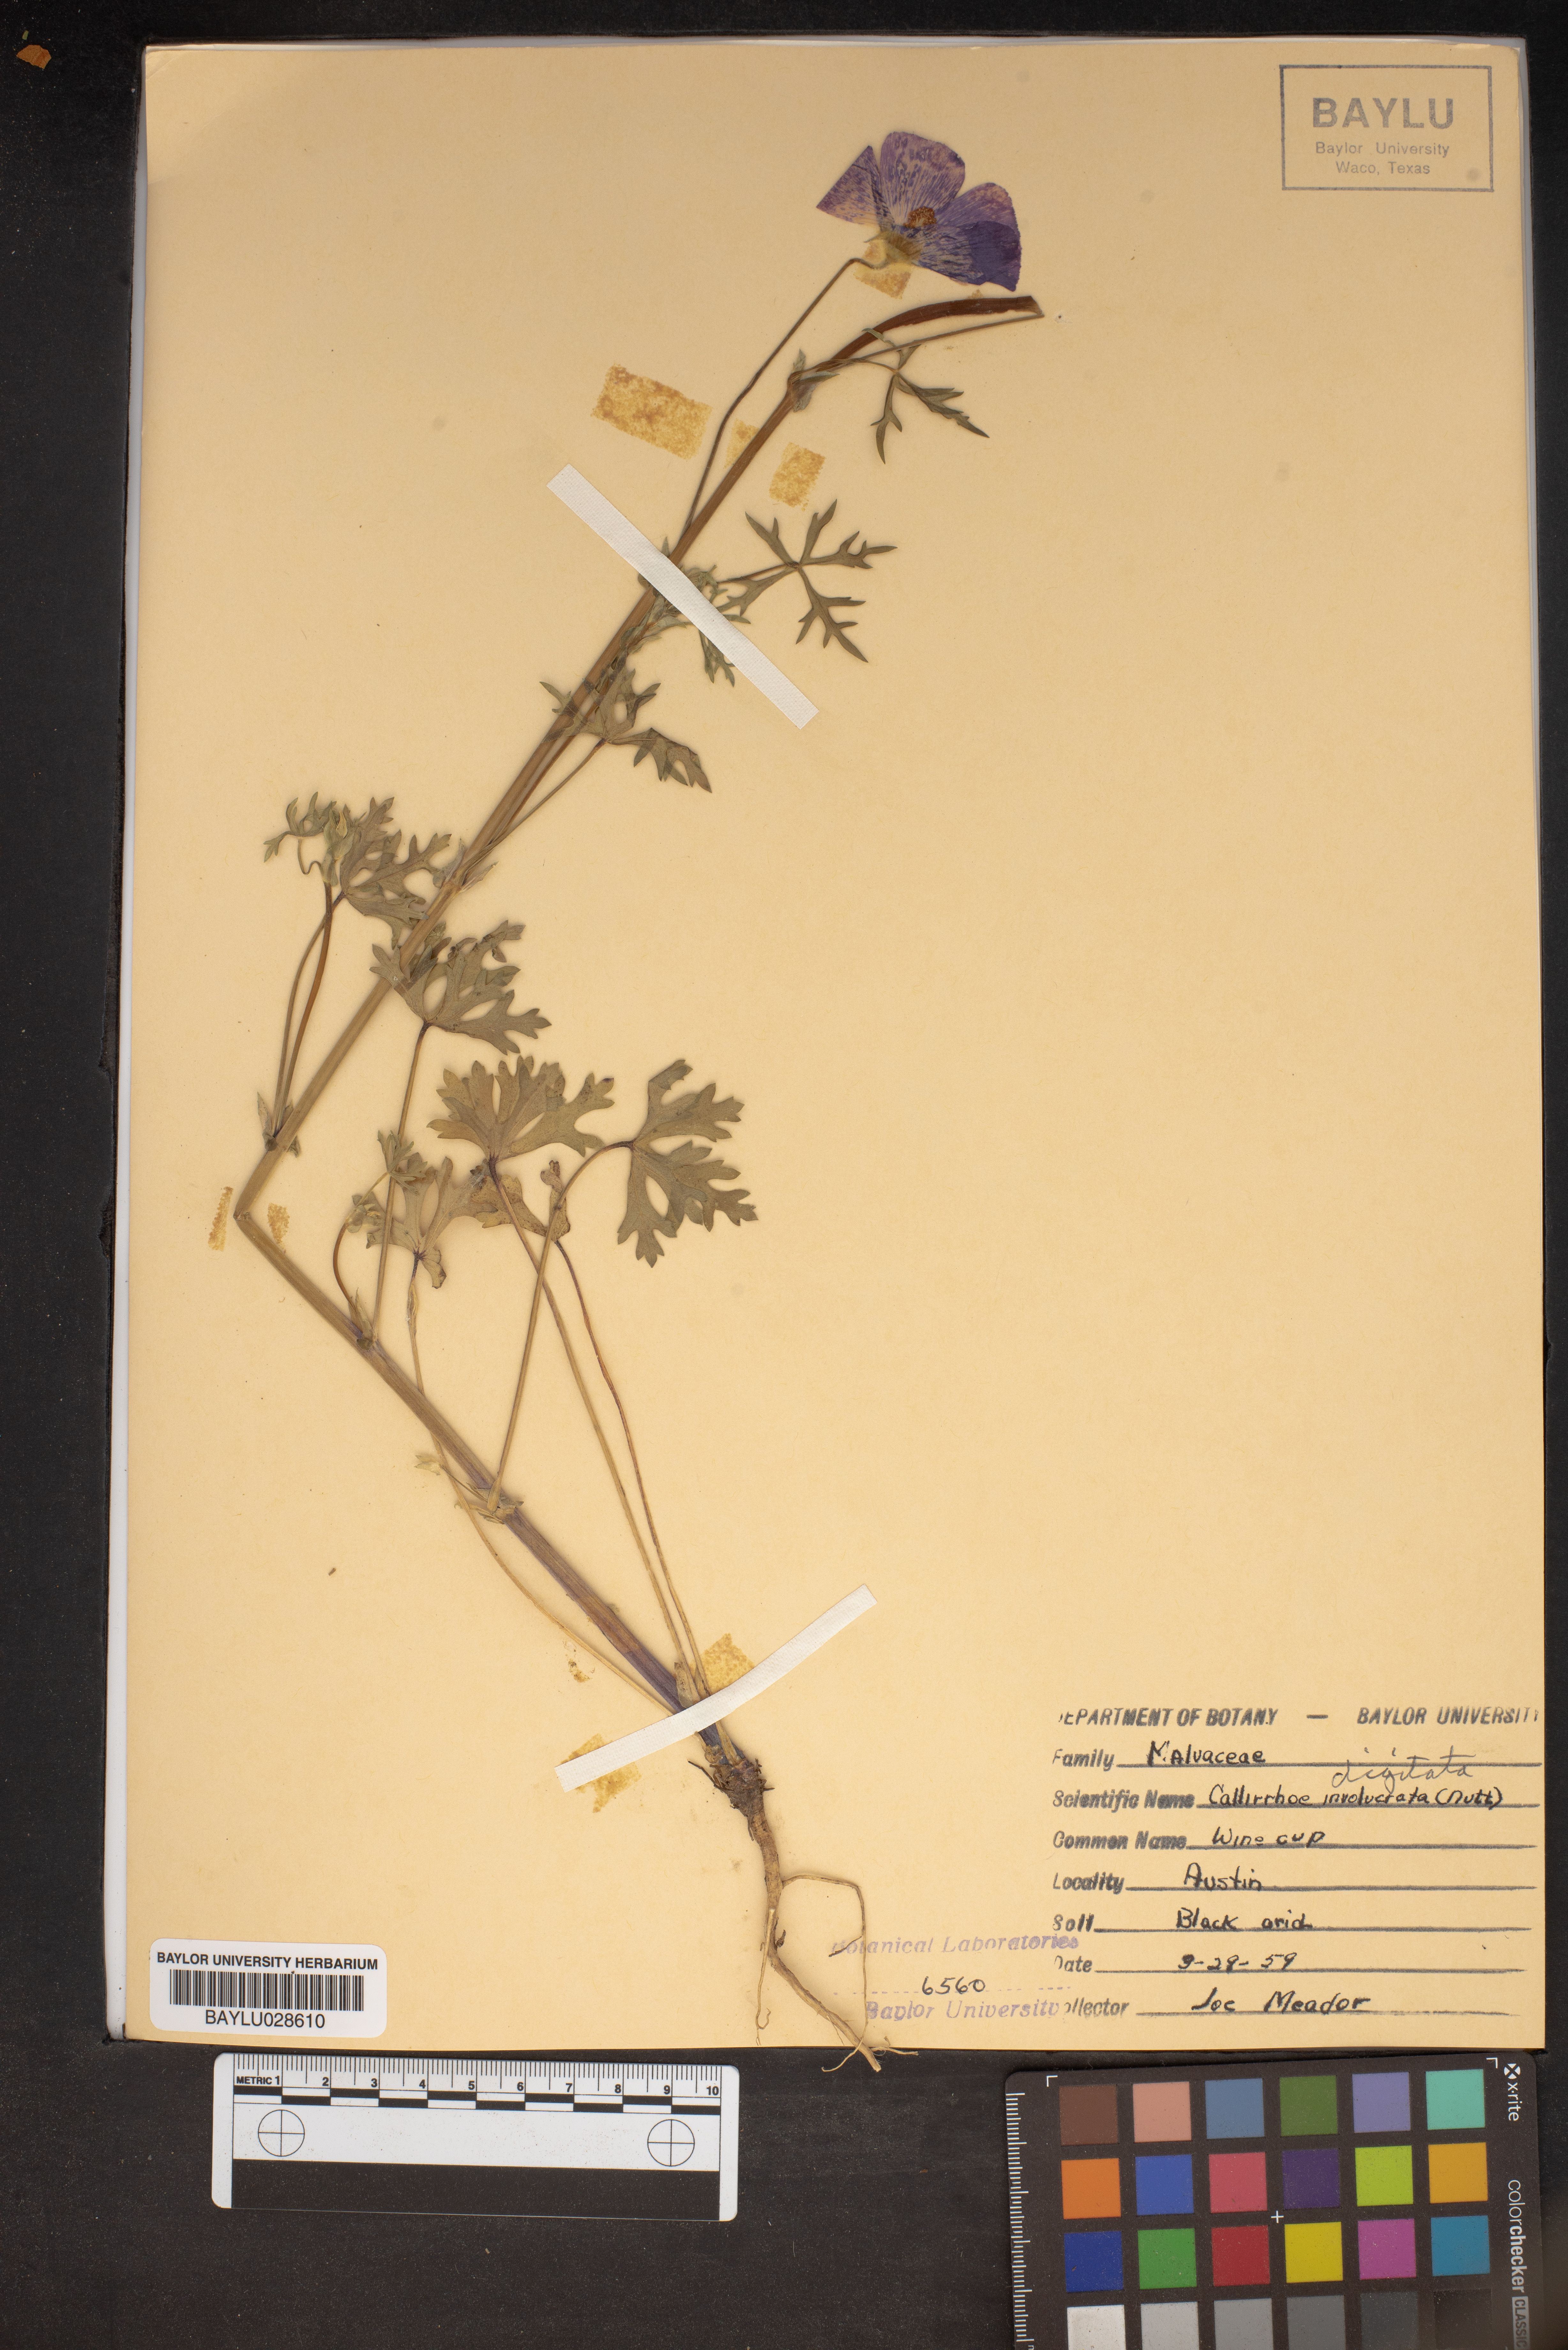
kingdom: Plantae
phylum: Tracheophyta
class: Magnoliopsida
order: Malvales
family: Malvaceae
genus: Callirhoe
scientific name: Callirhoe involucrata
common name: Purple poppy-mallow
